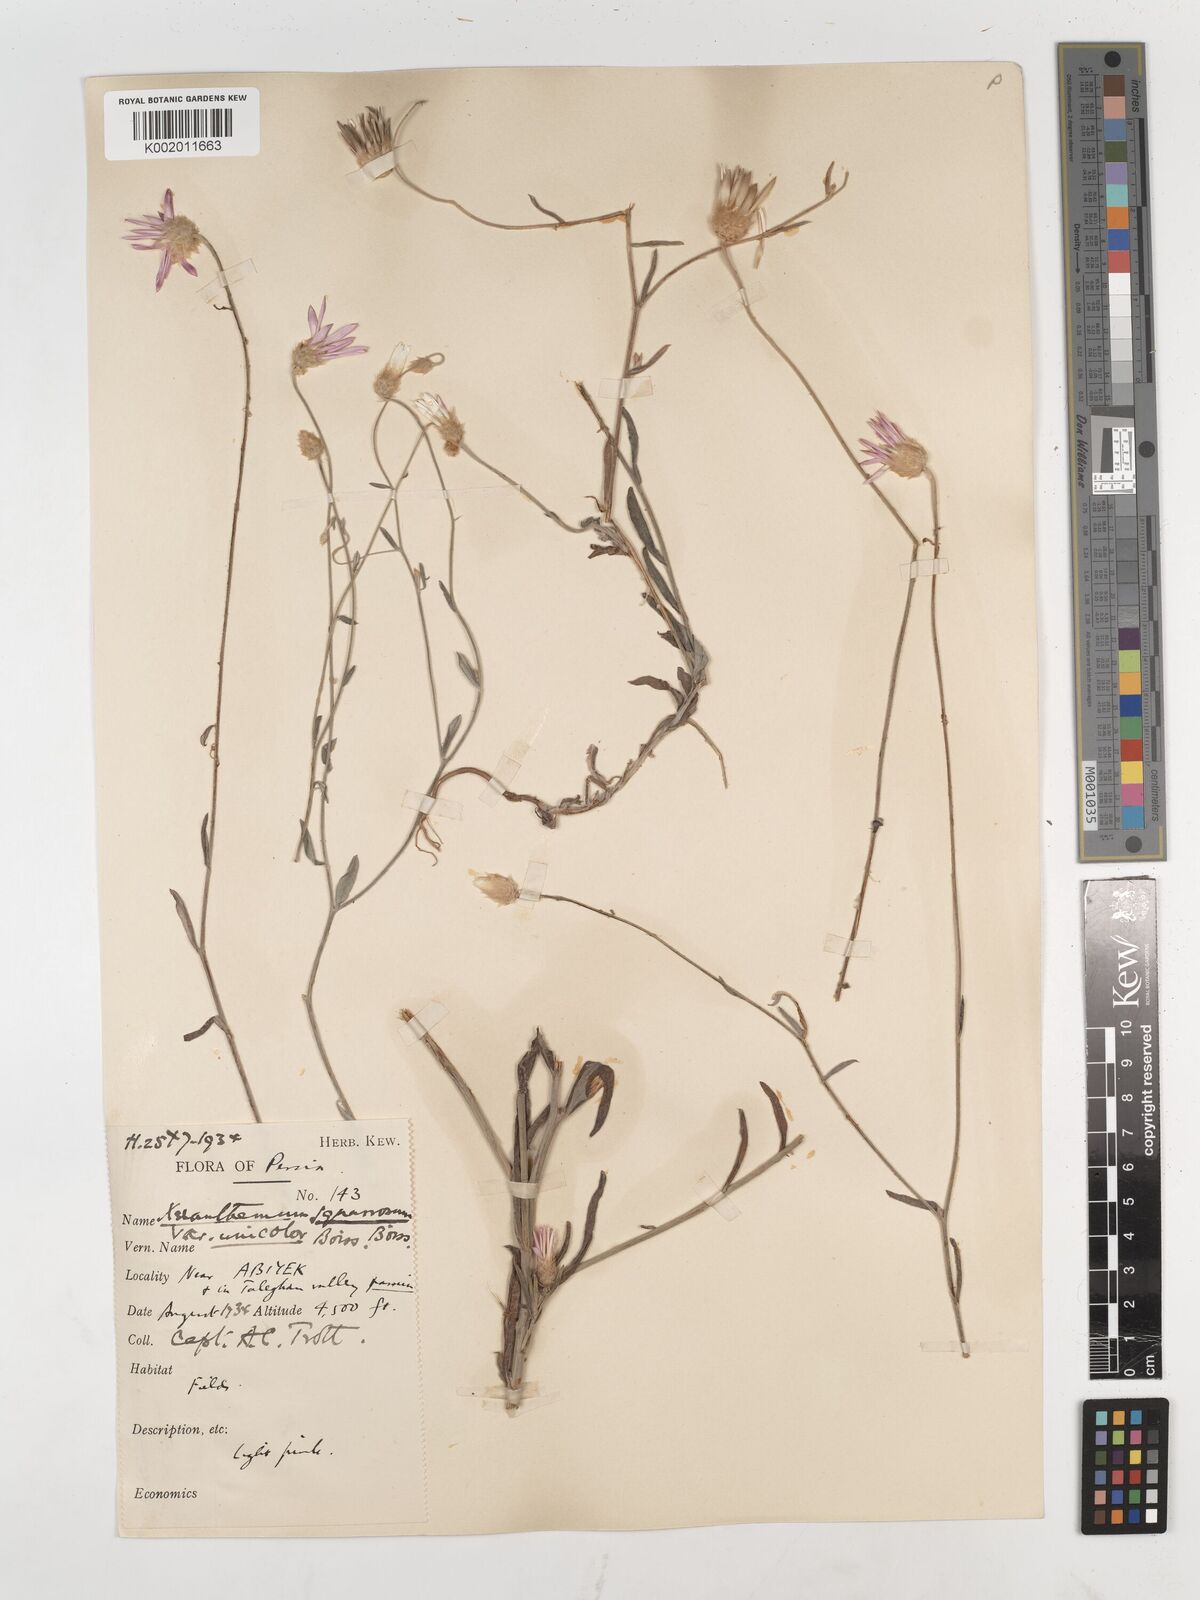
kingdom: Plantae
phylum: Tracheophyta
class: Magnoliopsida
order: Asterales
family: Asteraceae
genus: Xeranthemum
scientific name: Xeranthemum squarrosum
